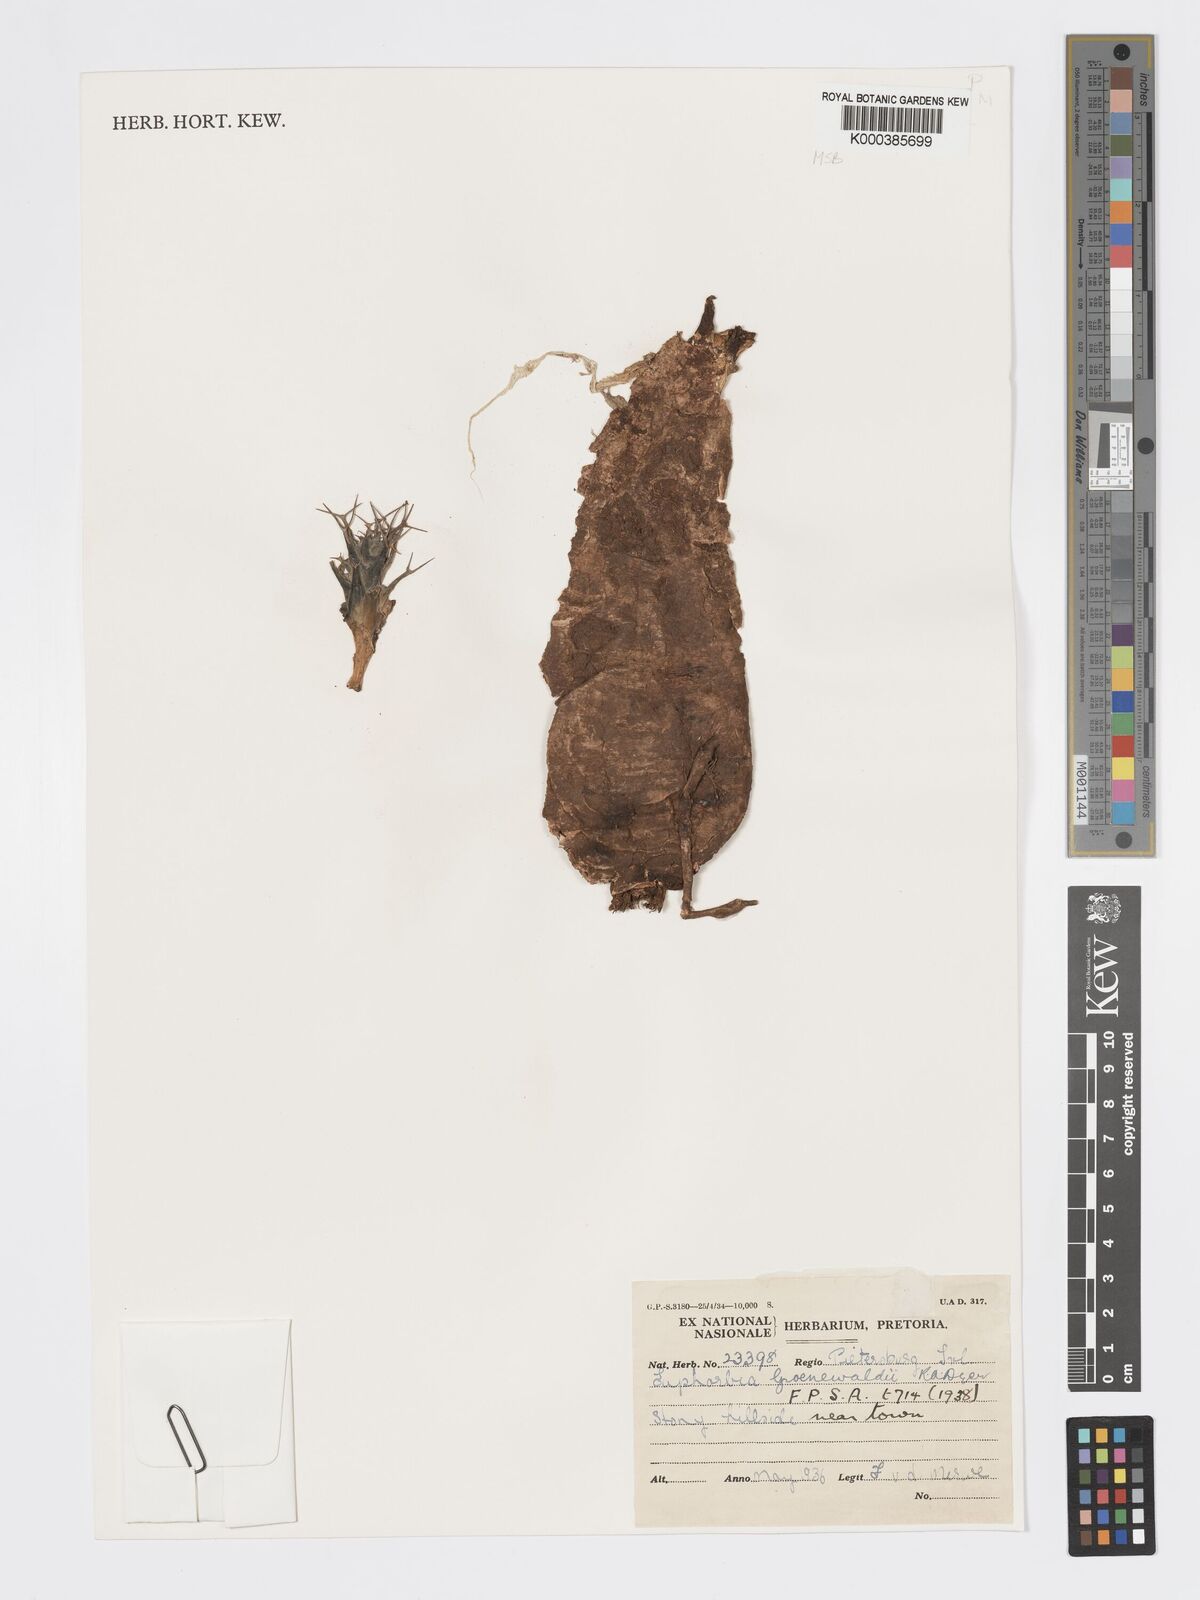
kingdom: Plantae
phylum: Tracheophyta
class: Magnoliopsida
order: Malpighiales
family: Euphorbiaceae
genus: Euphorbia
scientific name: Euphorbia groenewaldii
